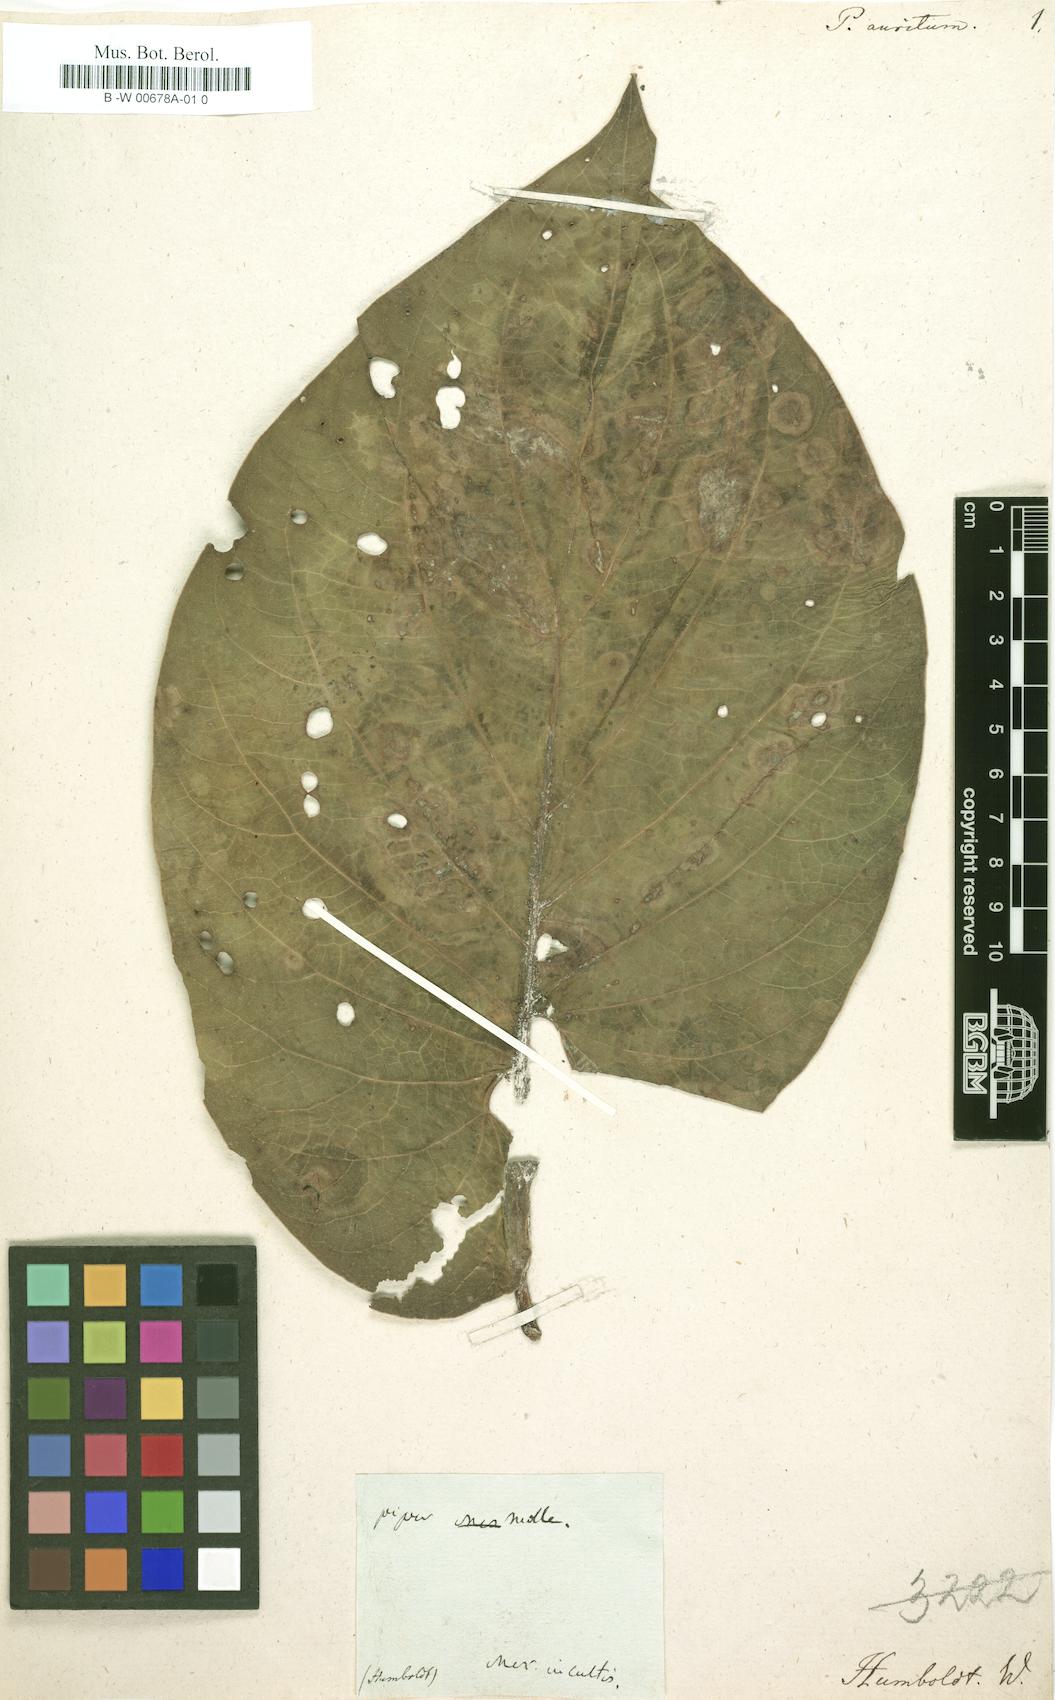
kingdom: Plantae
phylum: Tracheophyta
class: Magnoliopsida
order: Piperales
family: Piperaceae
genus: Piper
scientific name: Piper auritum
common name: Vera cruz pepper
